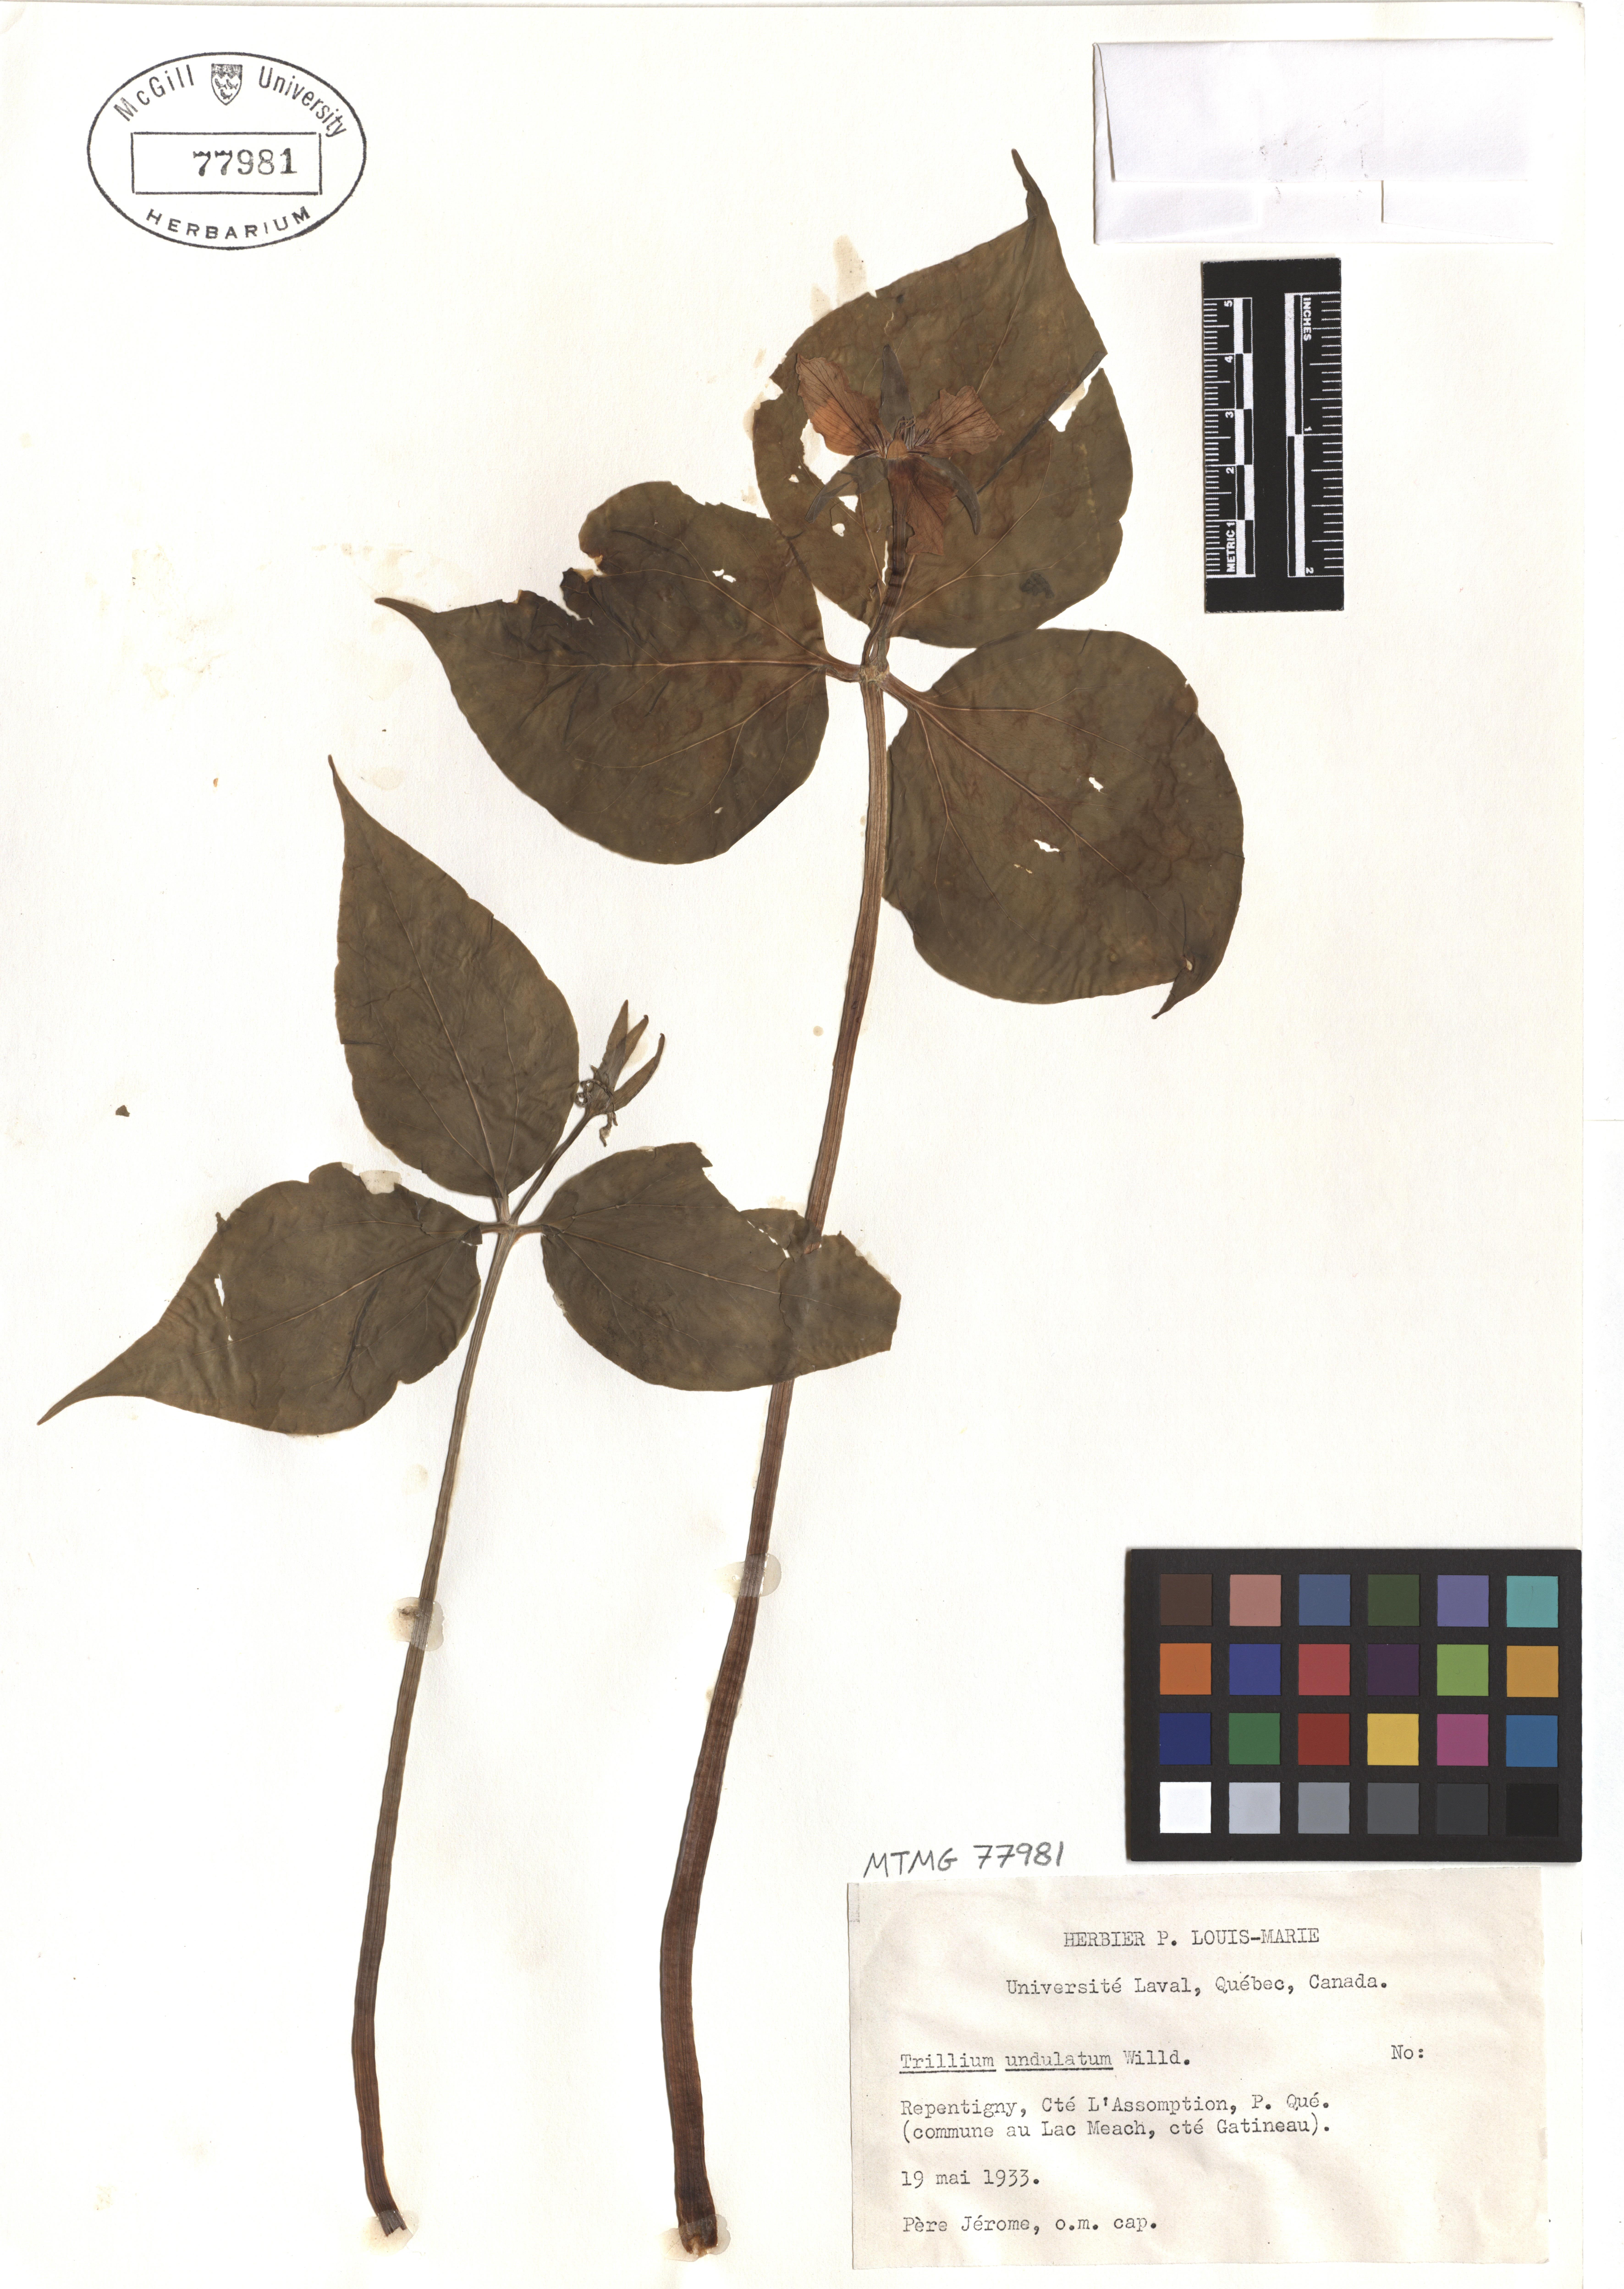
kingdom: Plantae
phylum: Tracheophyta
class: Liliopsida
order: Liliales
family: Melanthiaceae
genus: Trillium
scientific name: Trillium undulatum
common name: Paint trillium
